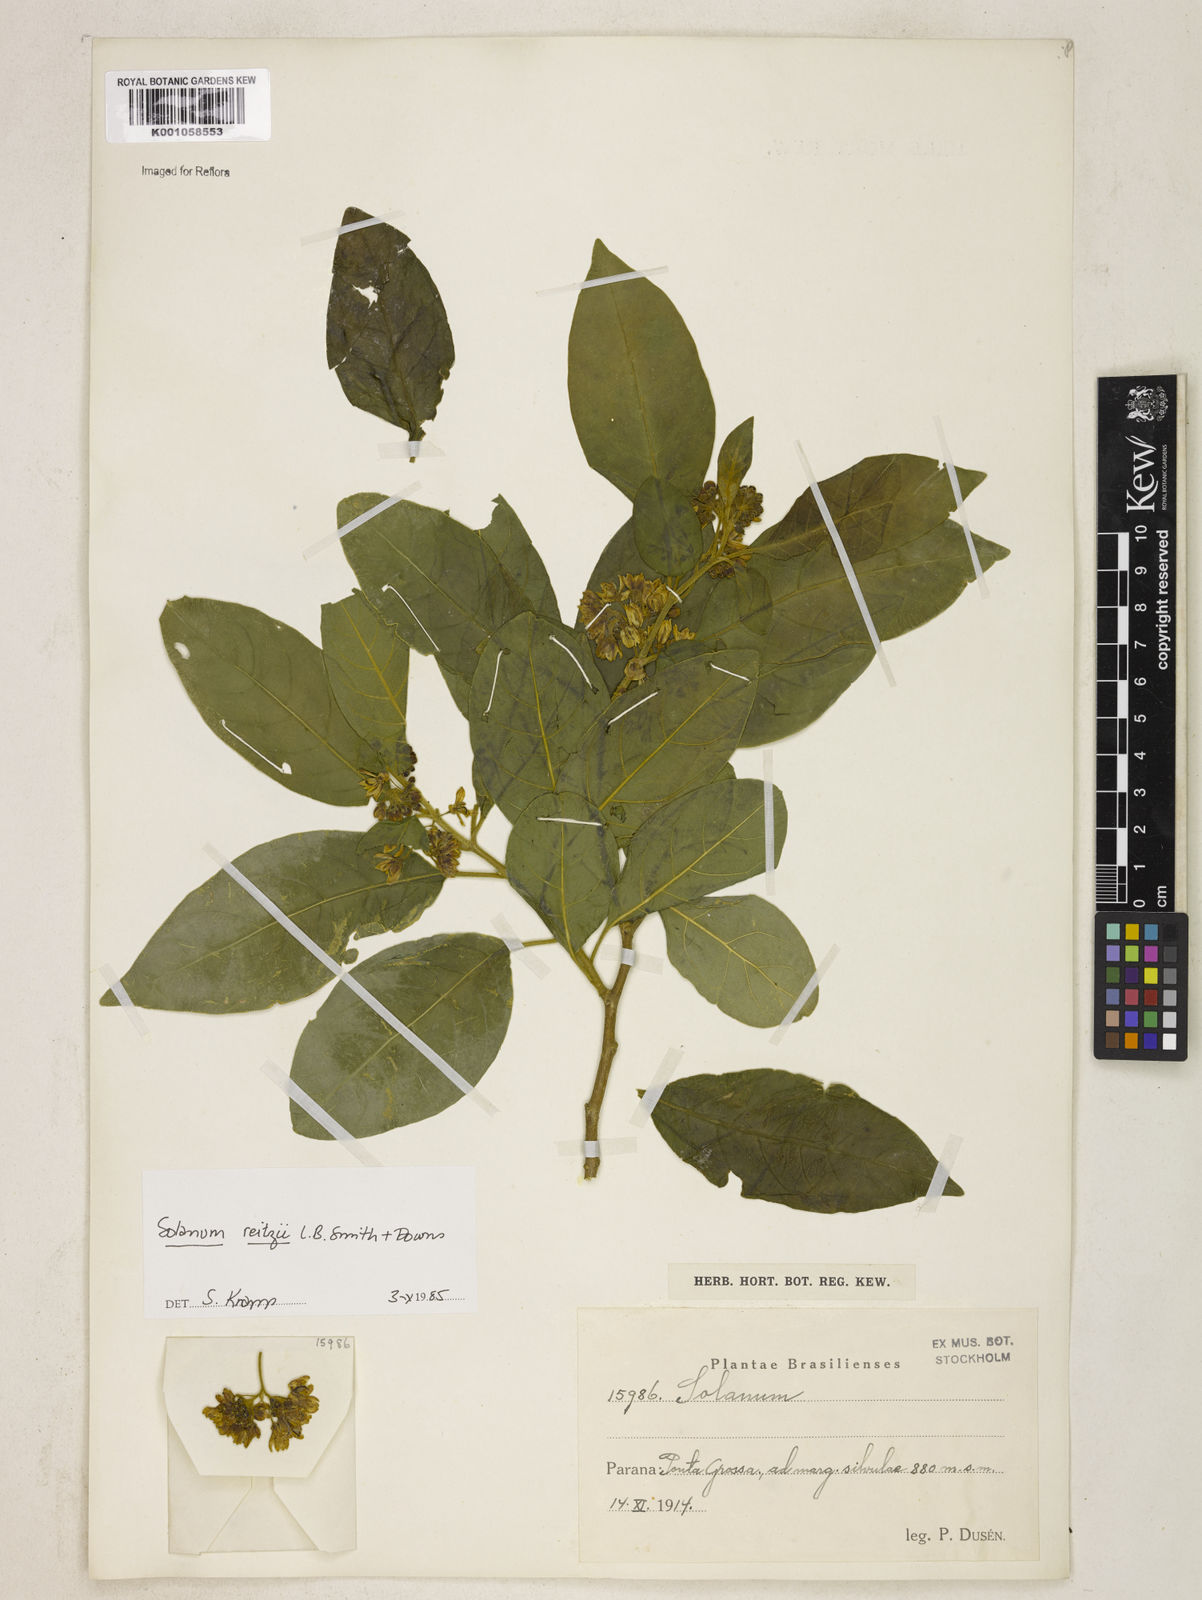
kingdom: Plantae
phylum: Tracheophyta
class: Magnoliopsida
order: Solanales
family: Solanaceae
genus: Solanum
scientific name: Solanum reitzii
